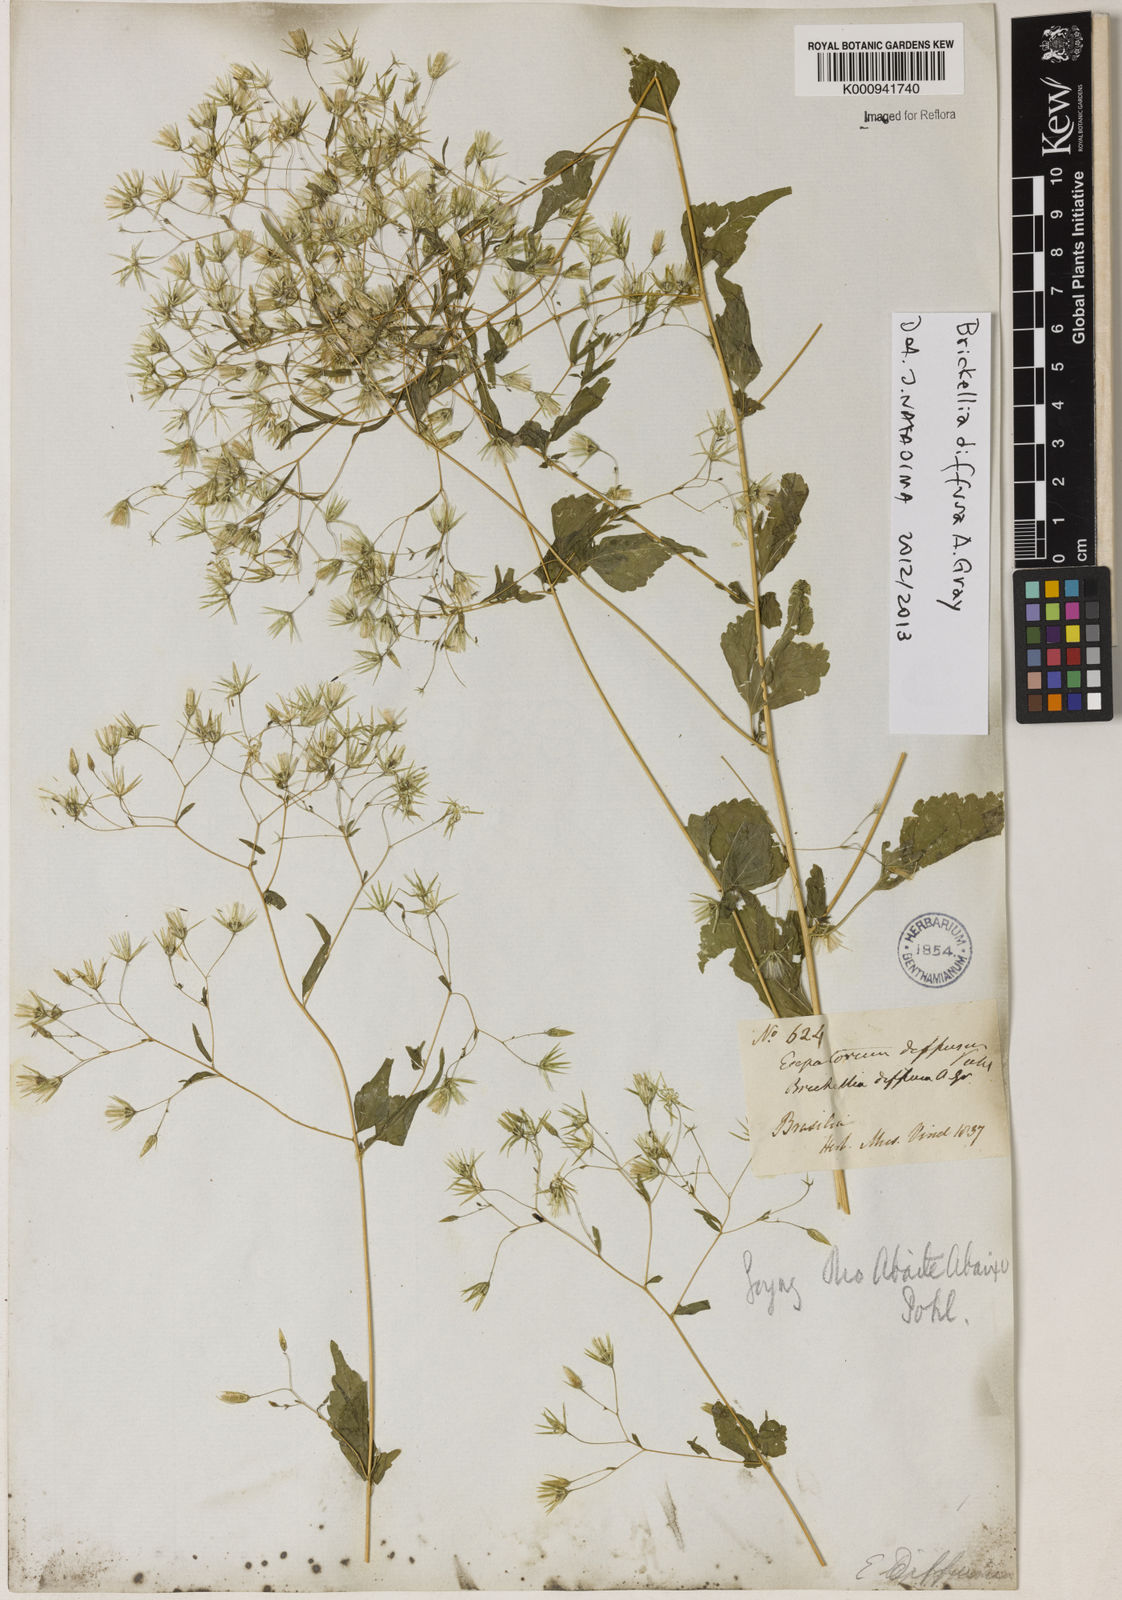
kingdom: Plantae
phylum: Tracheophyta
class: Magnoliopsida
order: Asterales
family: Asteraceae
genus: Brickellia
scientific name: Brickellia diffusa
